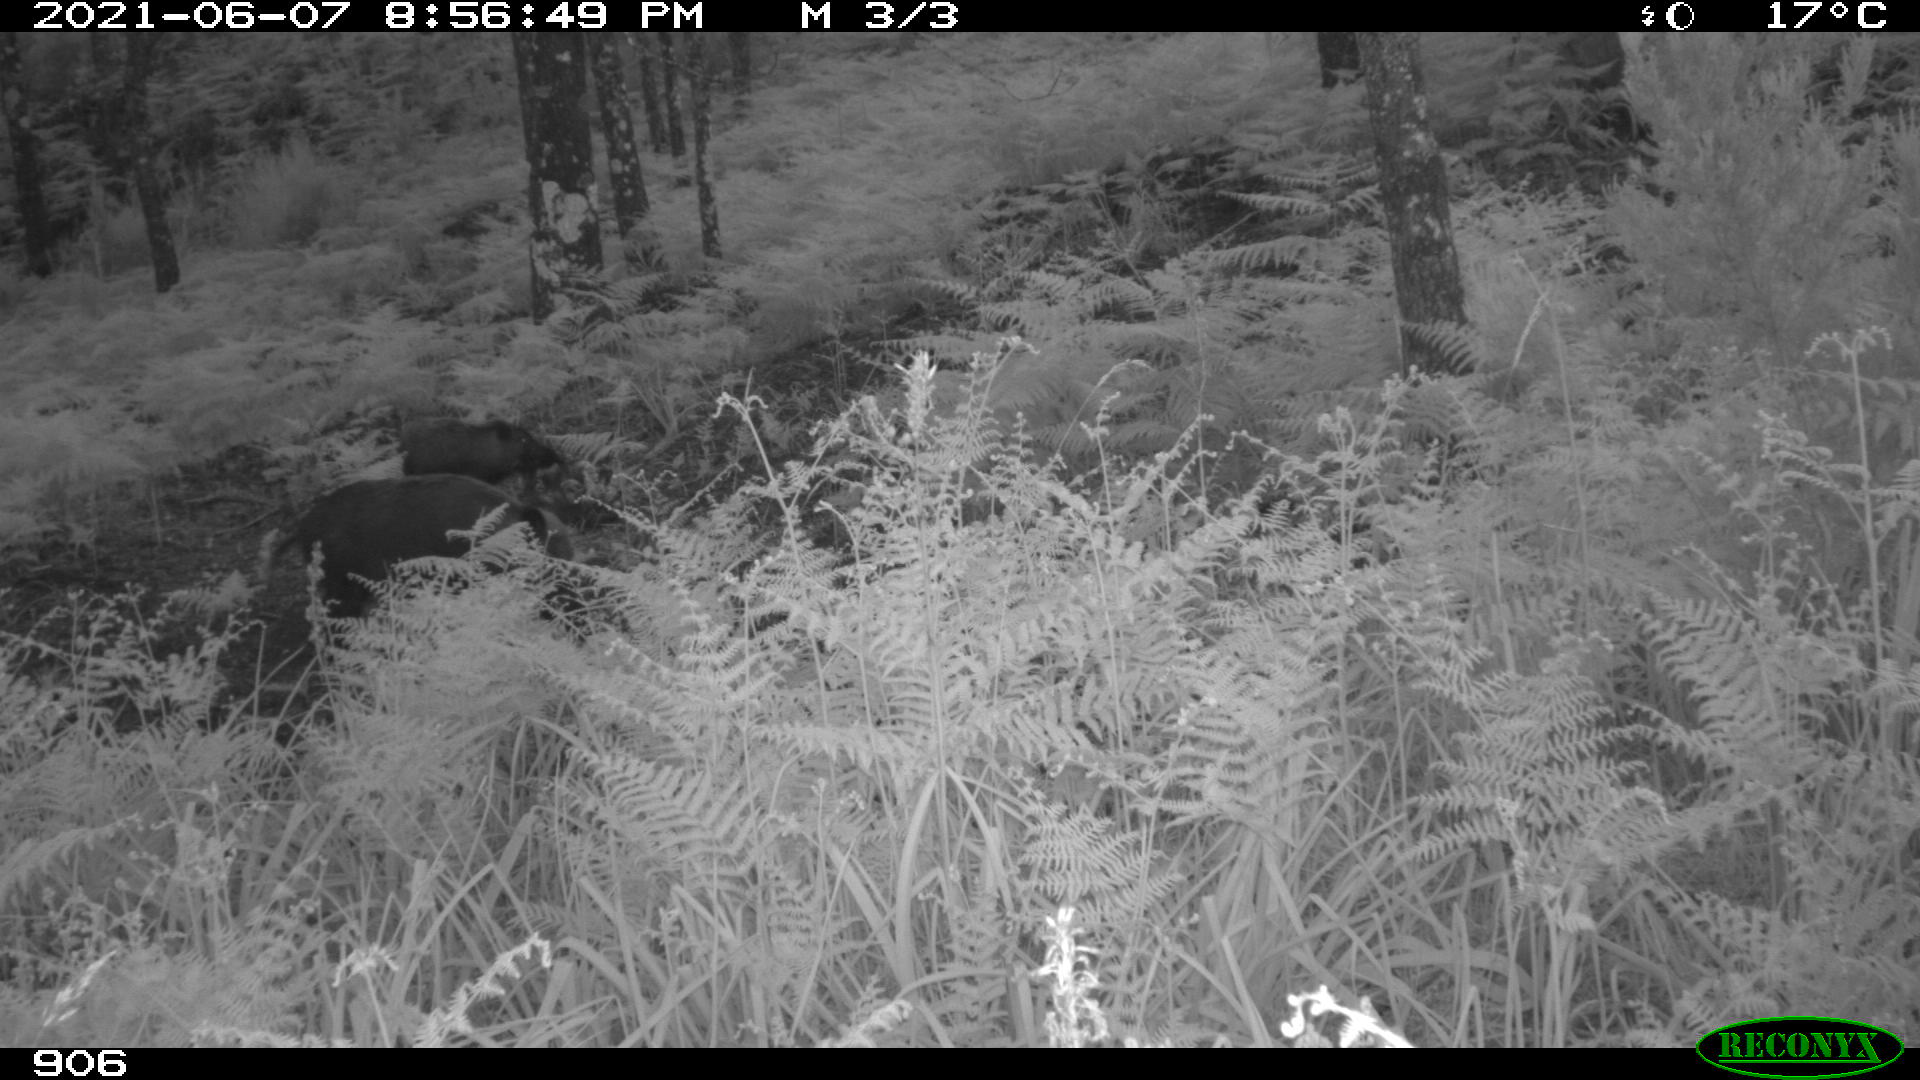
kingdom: Animalia
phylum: Chordata
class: Mammalia
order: Artiodactyla
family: Suidae
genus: Sus
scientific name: Sus scrofa
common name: Wild boar
